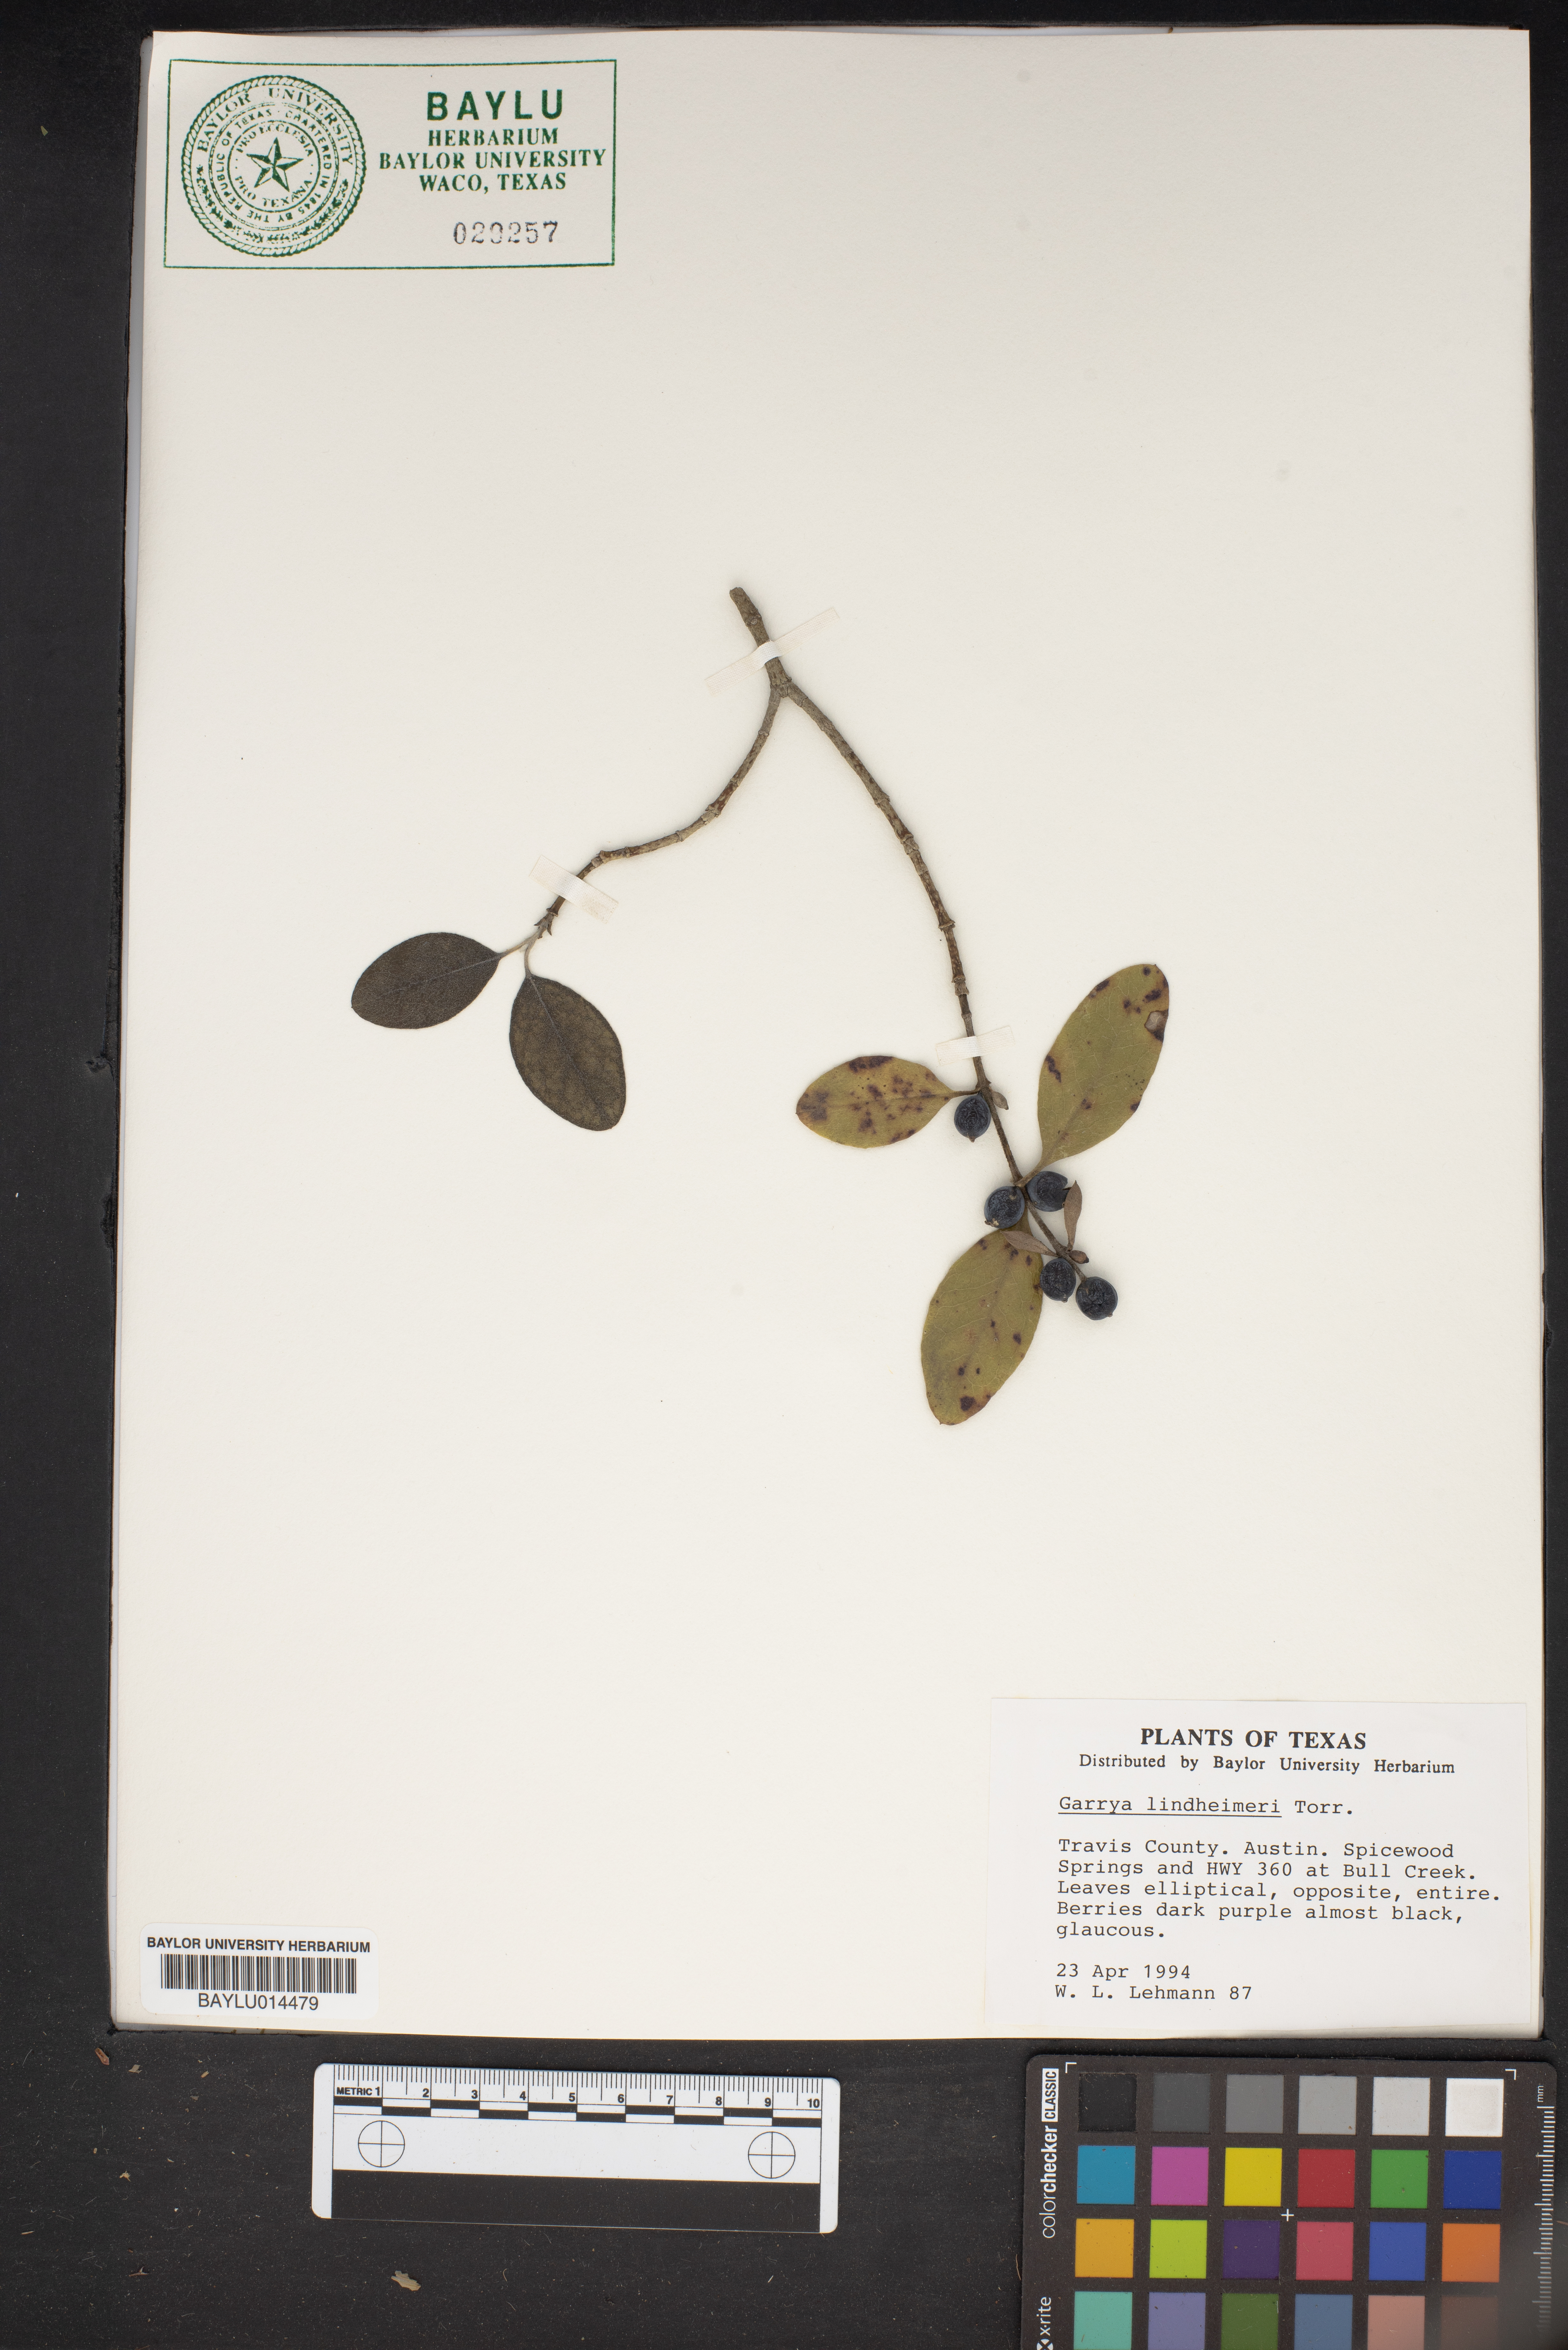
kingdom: Plantae
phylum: Tracheophyta
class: Magnoliopsida
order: Garryales
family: Garryaceae
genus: Garrya
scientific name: Garrya lindheimeri
